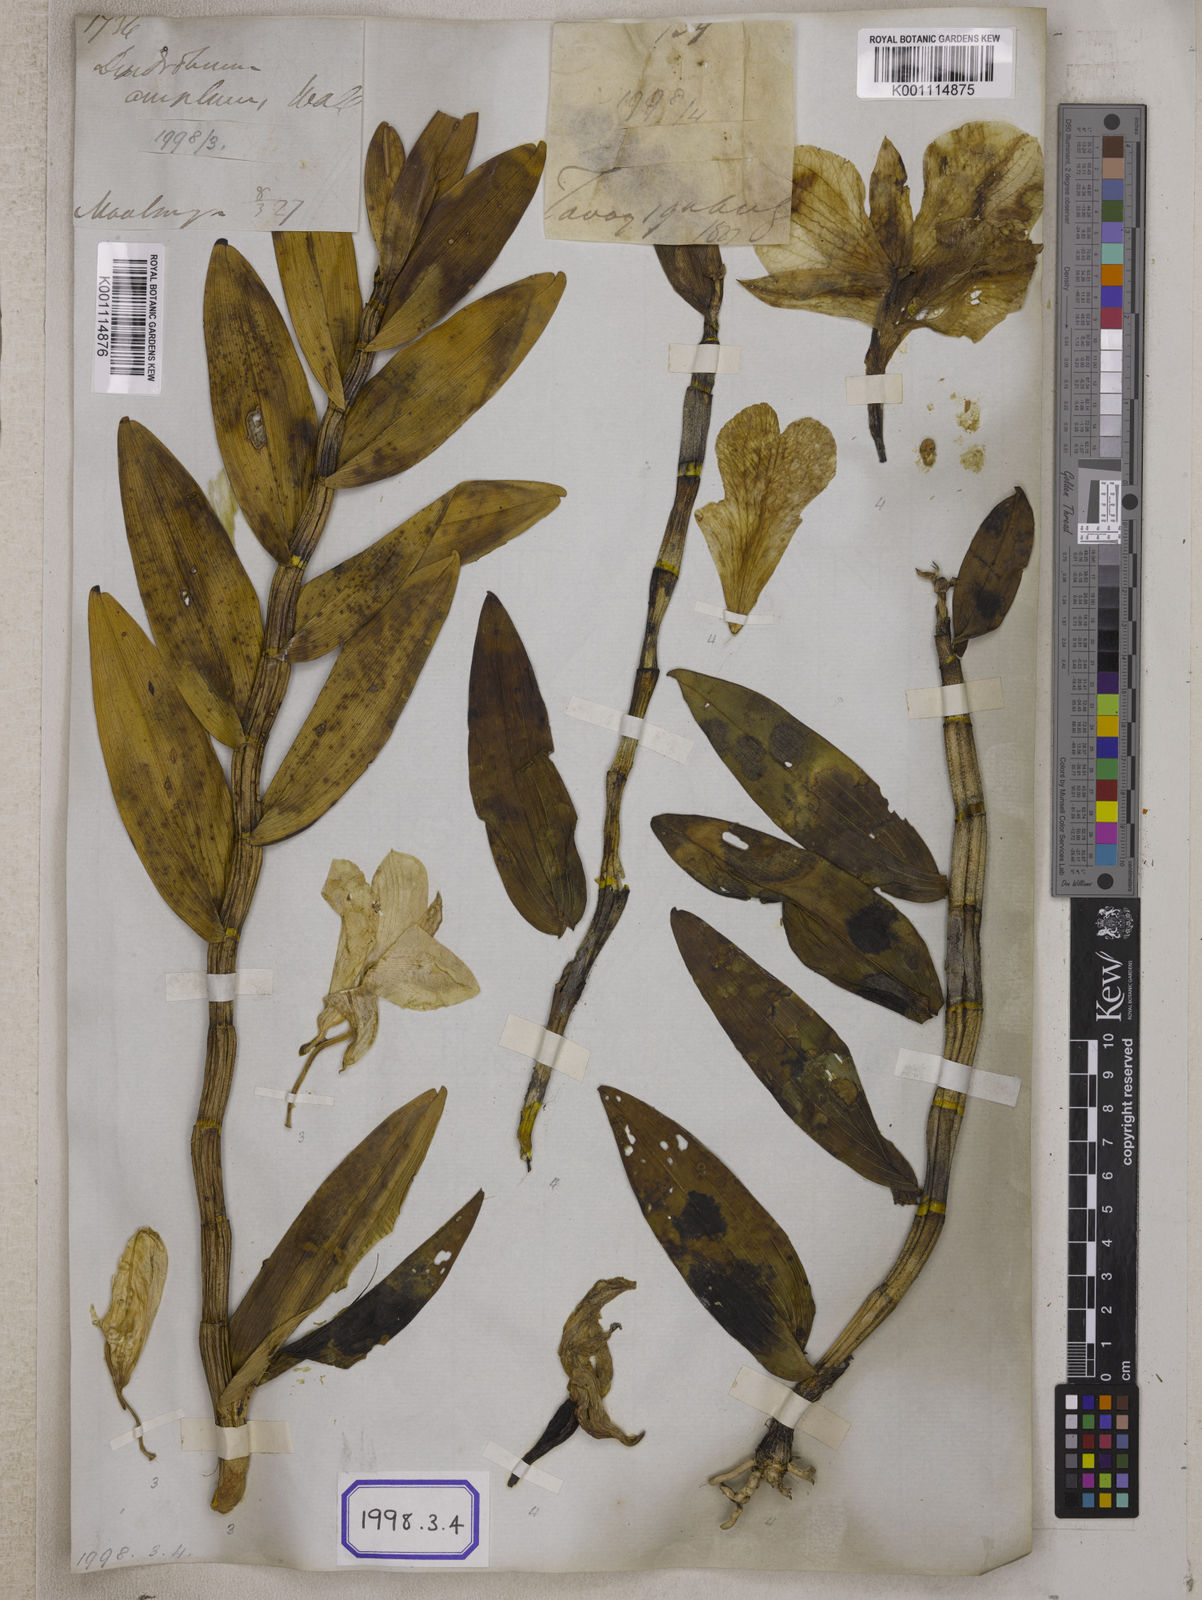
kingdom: Plantae
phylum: Tracheophyta
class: Liliopsida
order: Asparagales
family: Orchidaceae
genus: Dendrobium
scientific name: Dendrobium
